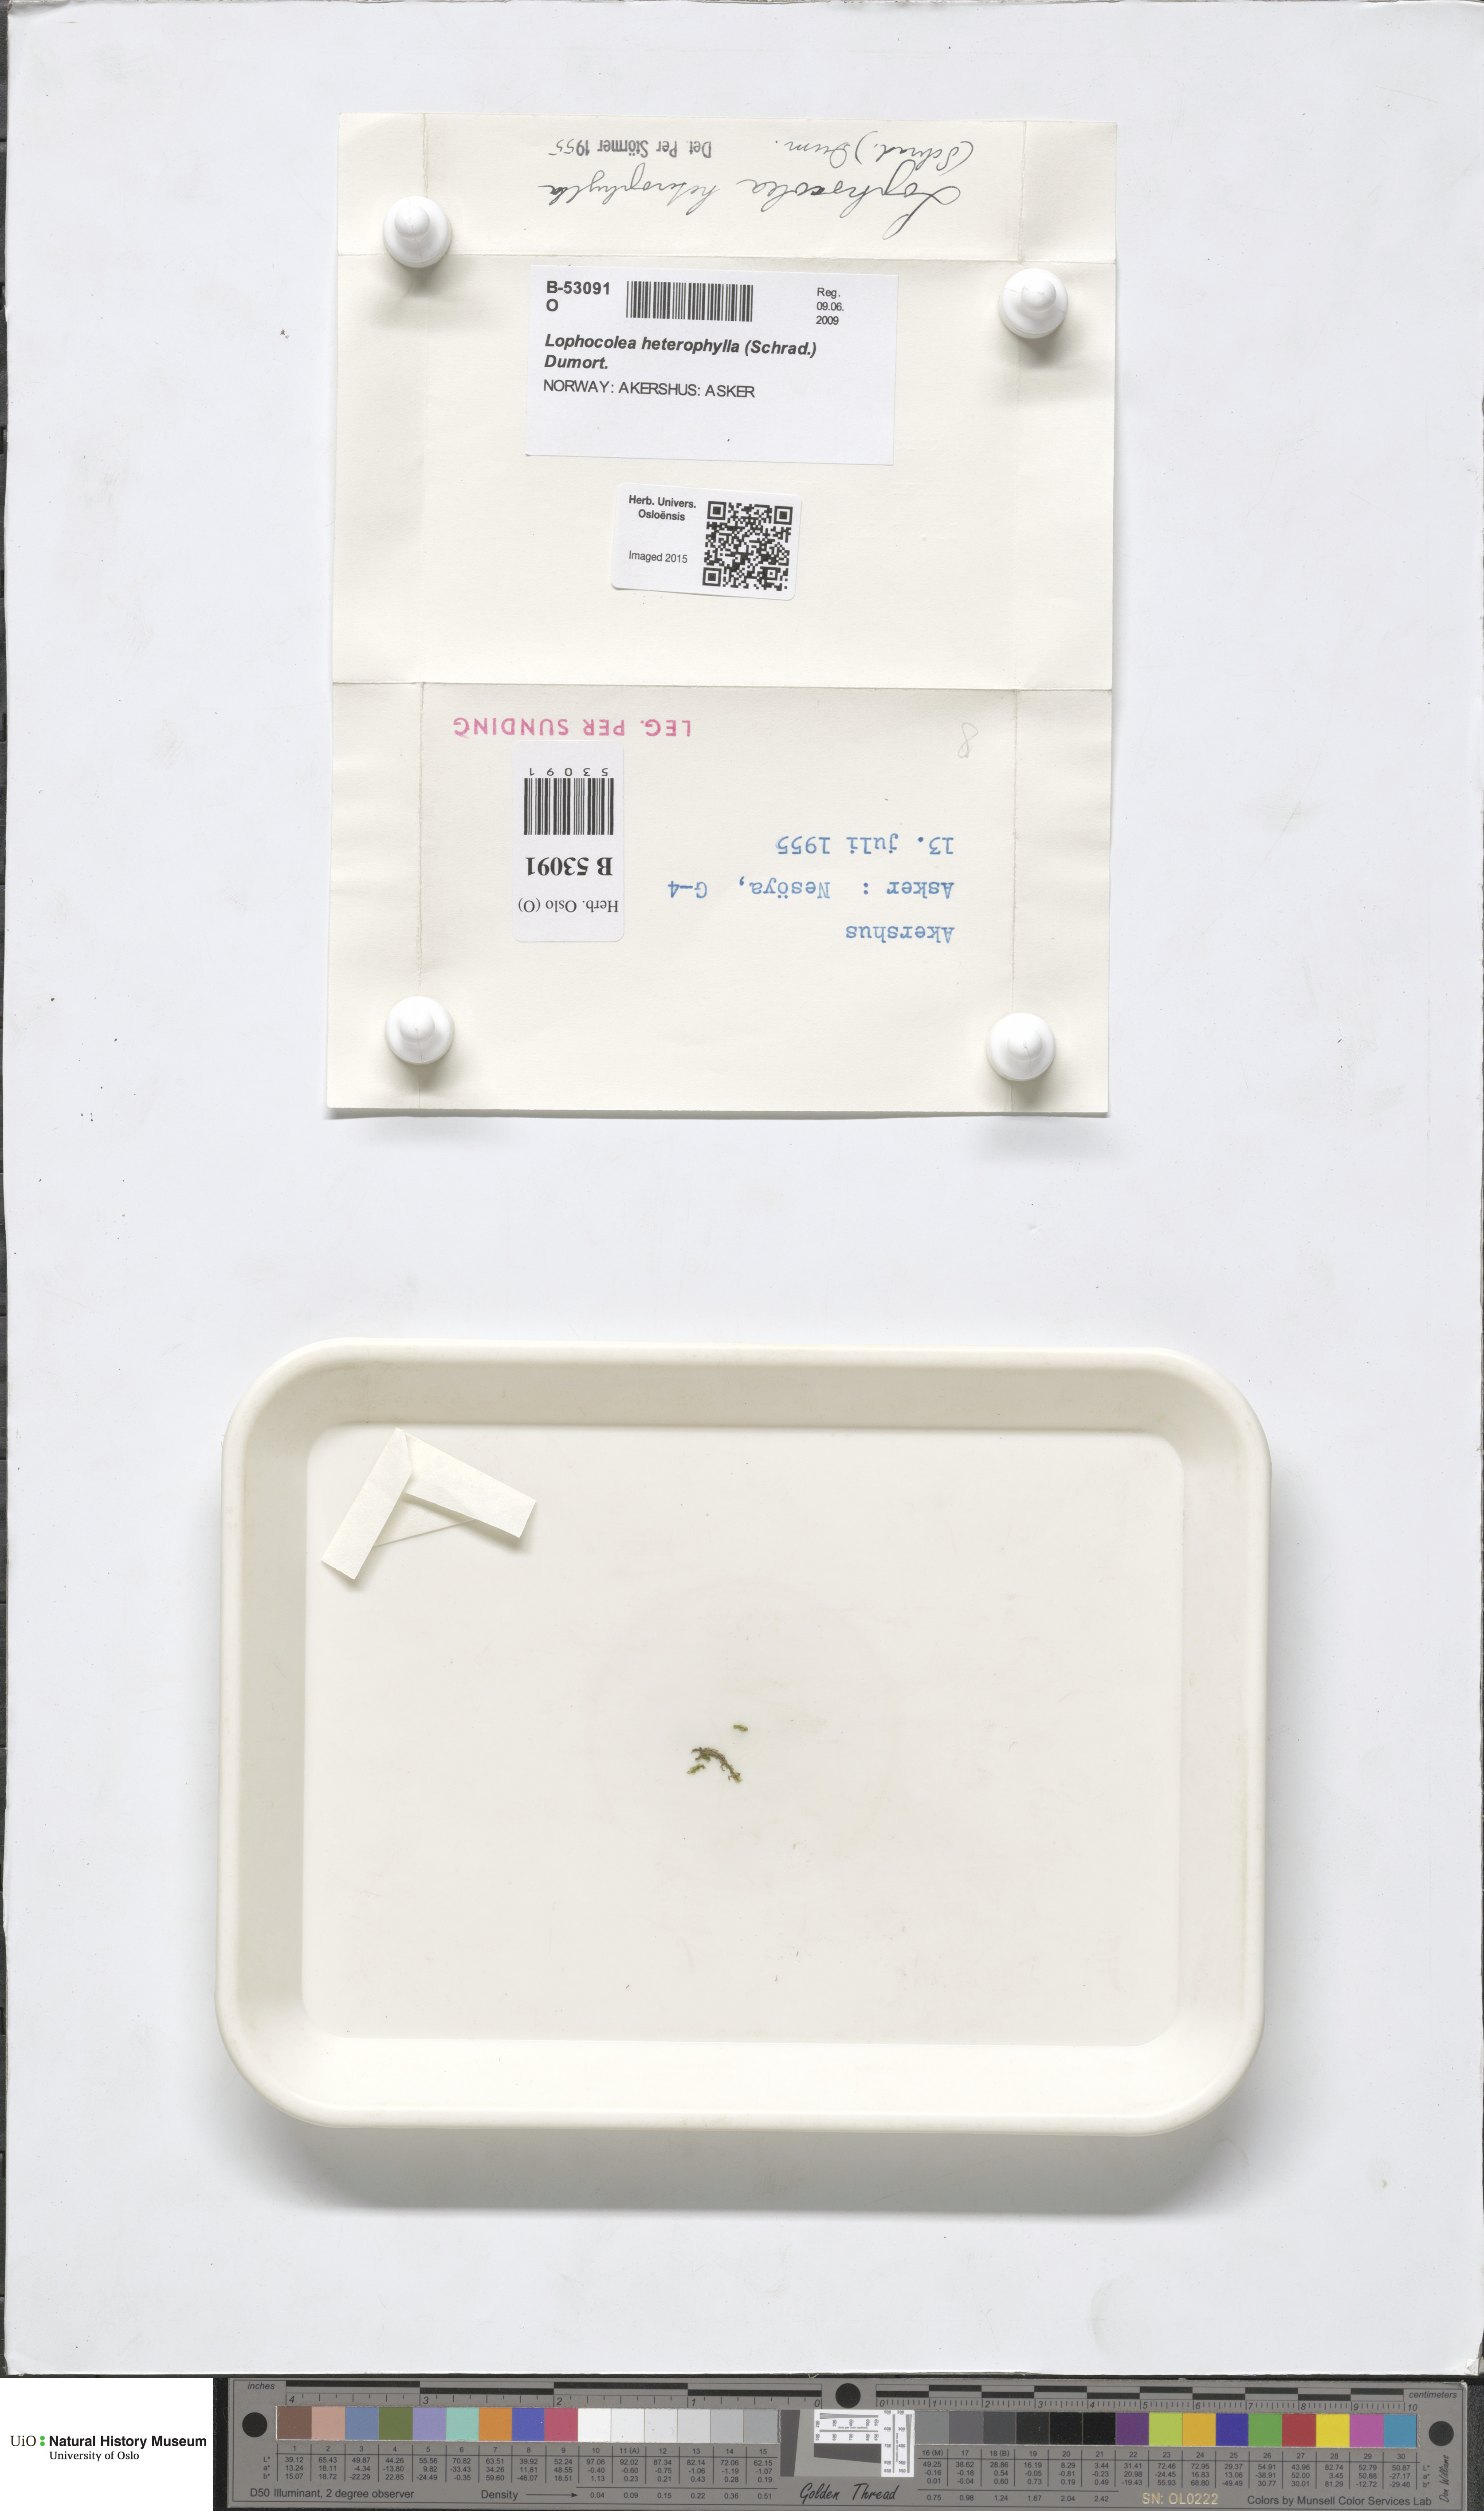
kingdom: Plantae
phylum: Marchantiophyta
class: Jungermanniopsida
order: Jungermanniales
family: Lophocoleaceae
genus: Lophocolea
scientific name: Lophocolea heterophylla
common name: Variable-leaved crestwort
